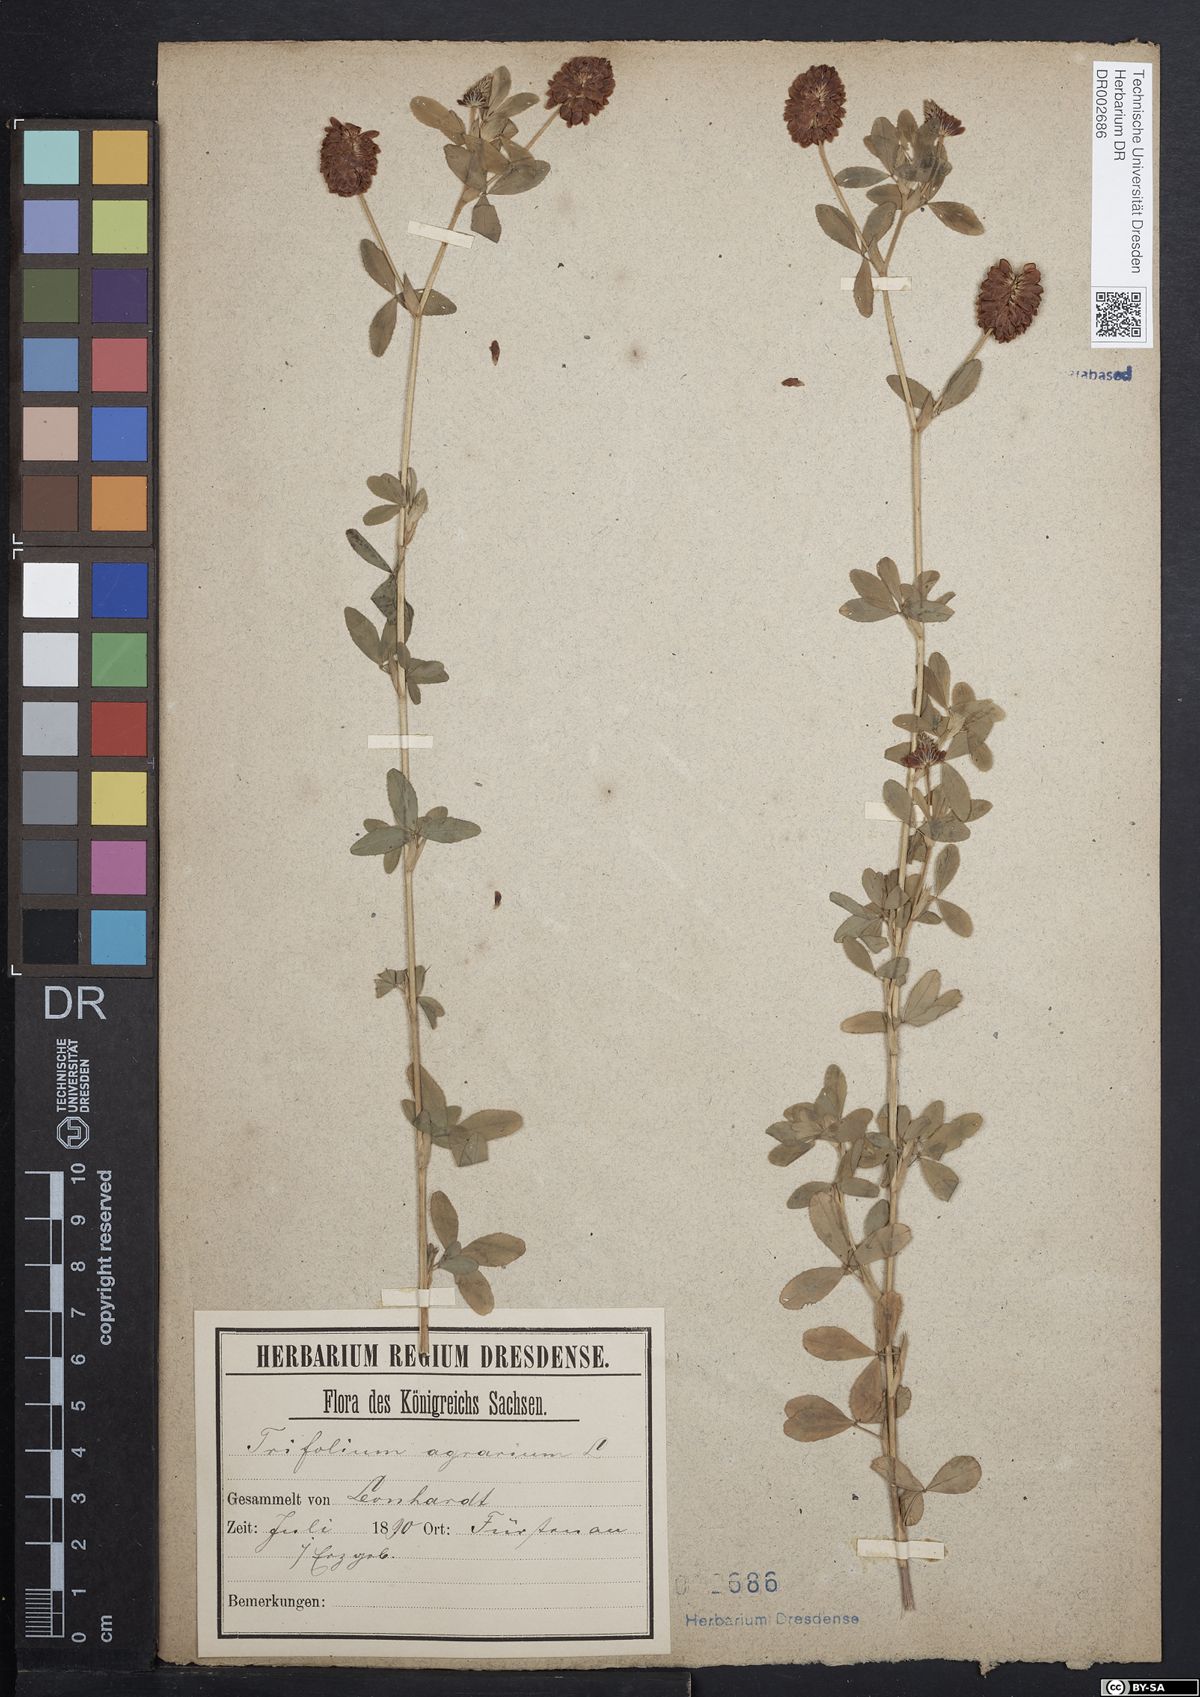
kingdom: Plantae
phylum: Tracheophyta
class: Magnoliopsida
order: Fabales
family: Fabaceae
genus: Trifolium
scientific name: Trifolium aureum
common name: Golden clover
